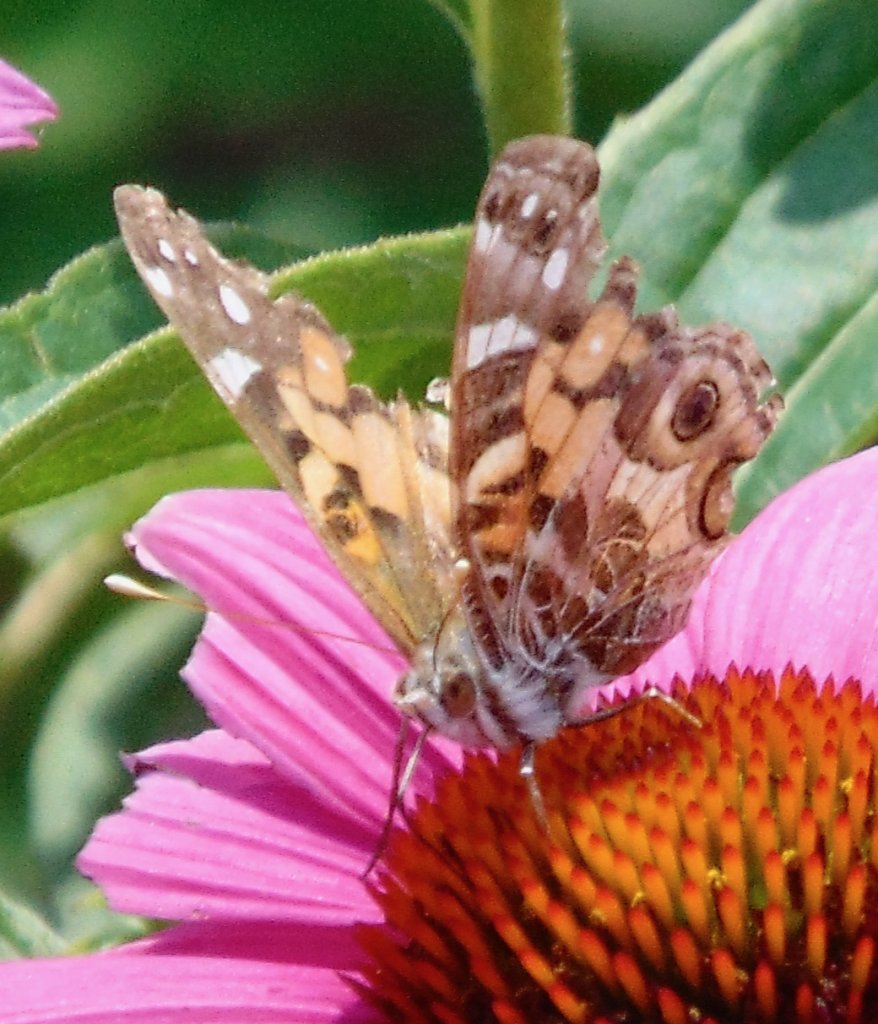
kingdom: Animalia
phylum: Arthropoda
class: Insecta
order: Lepidoptera
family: Nymphalidae
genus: Vanessa
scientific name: Vanessa virginiensis
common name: American Lady
